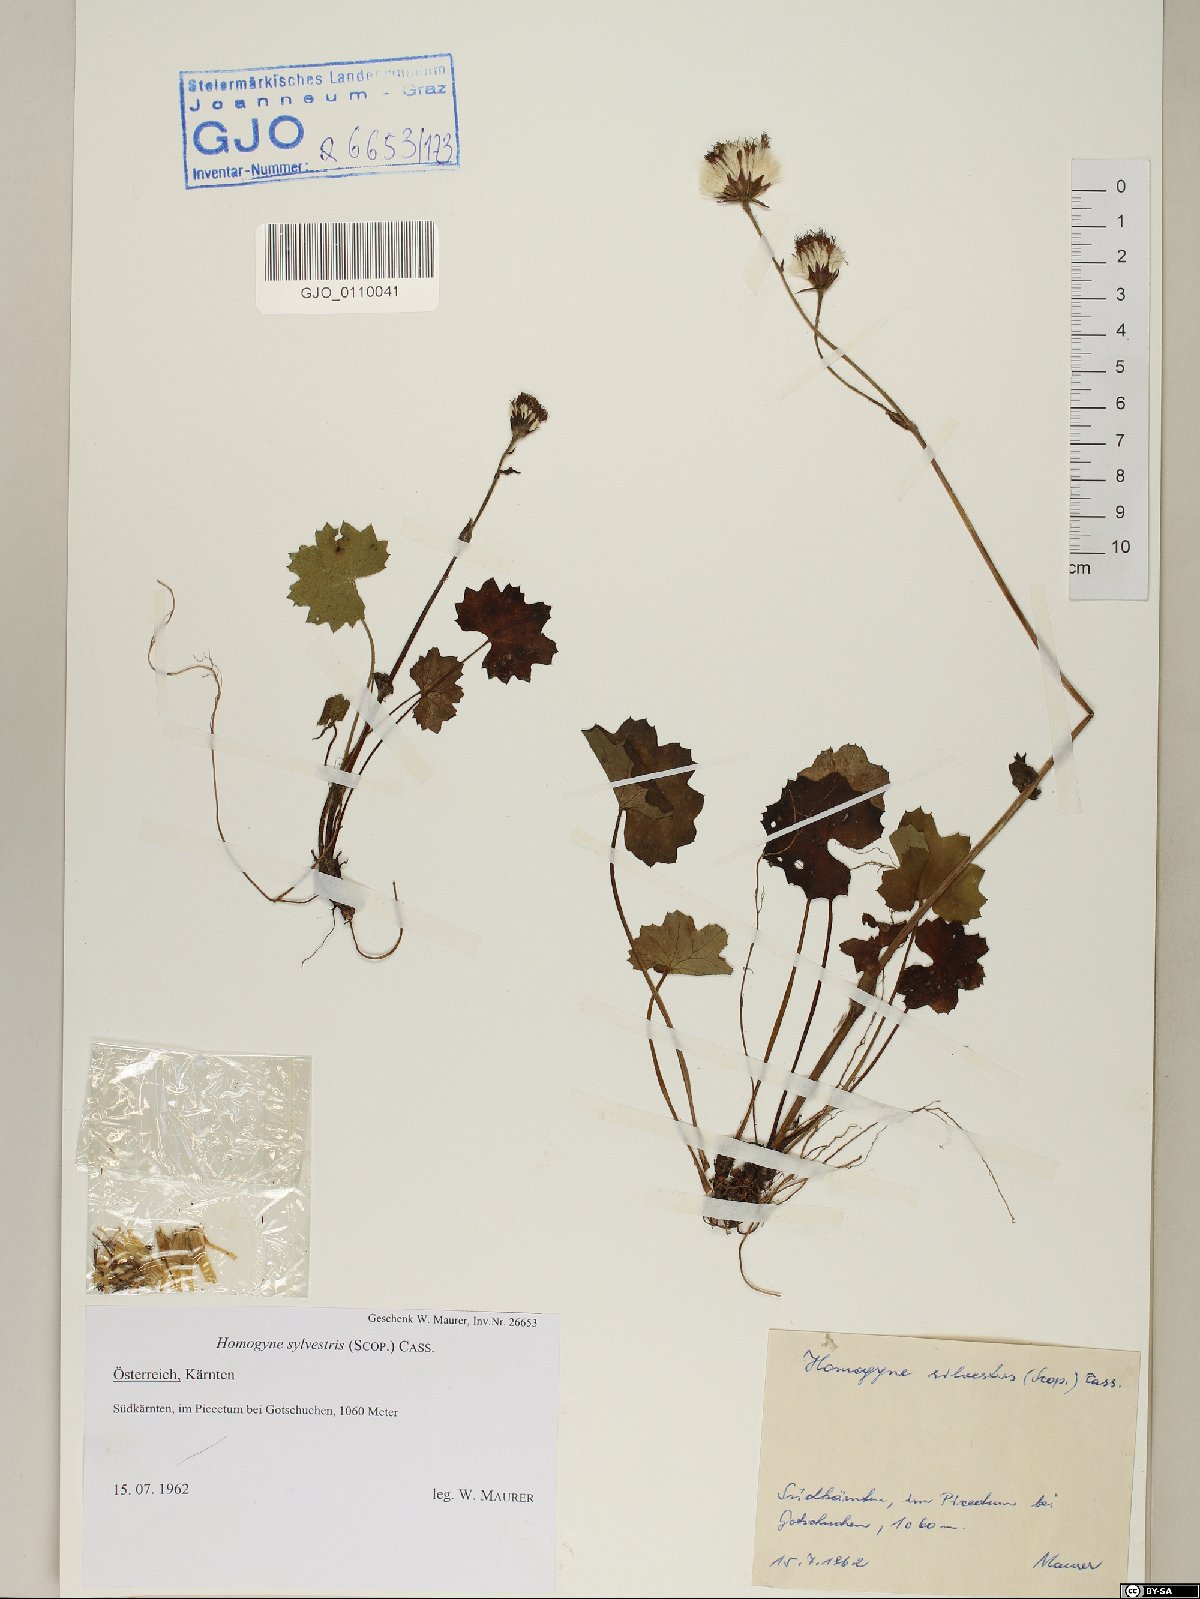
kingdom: Plantae
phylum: Tracheophyta
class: Magnoliopsida
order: Asterales
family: Asteraceae
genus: Homogyne
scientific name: Homogyne sylvestris
